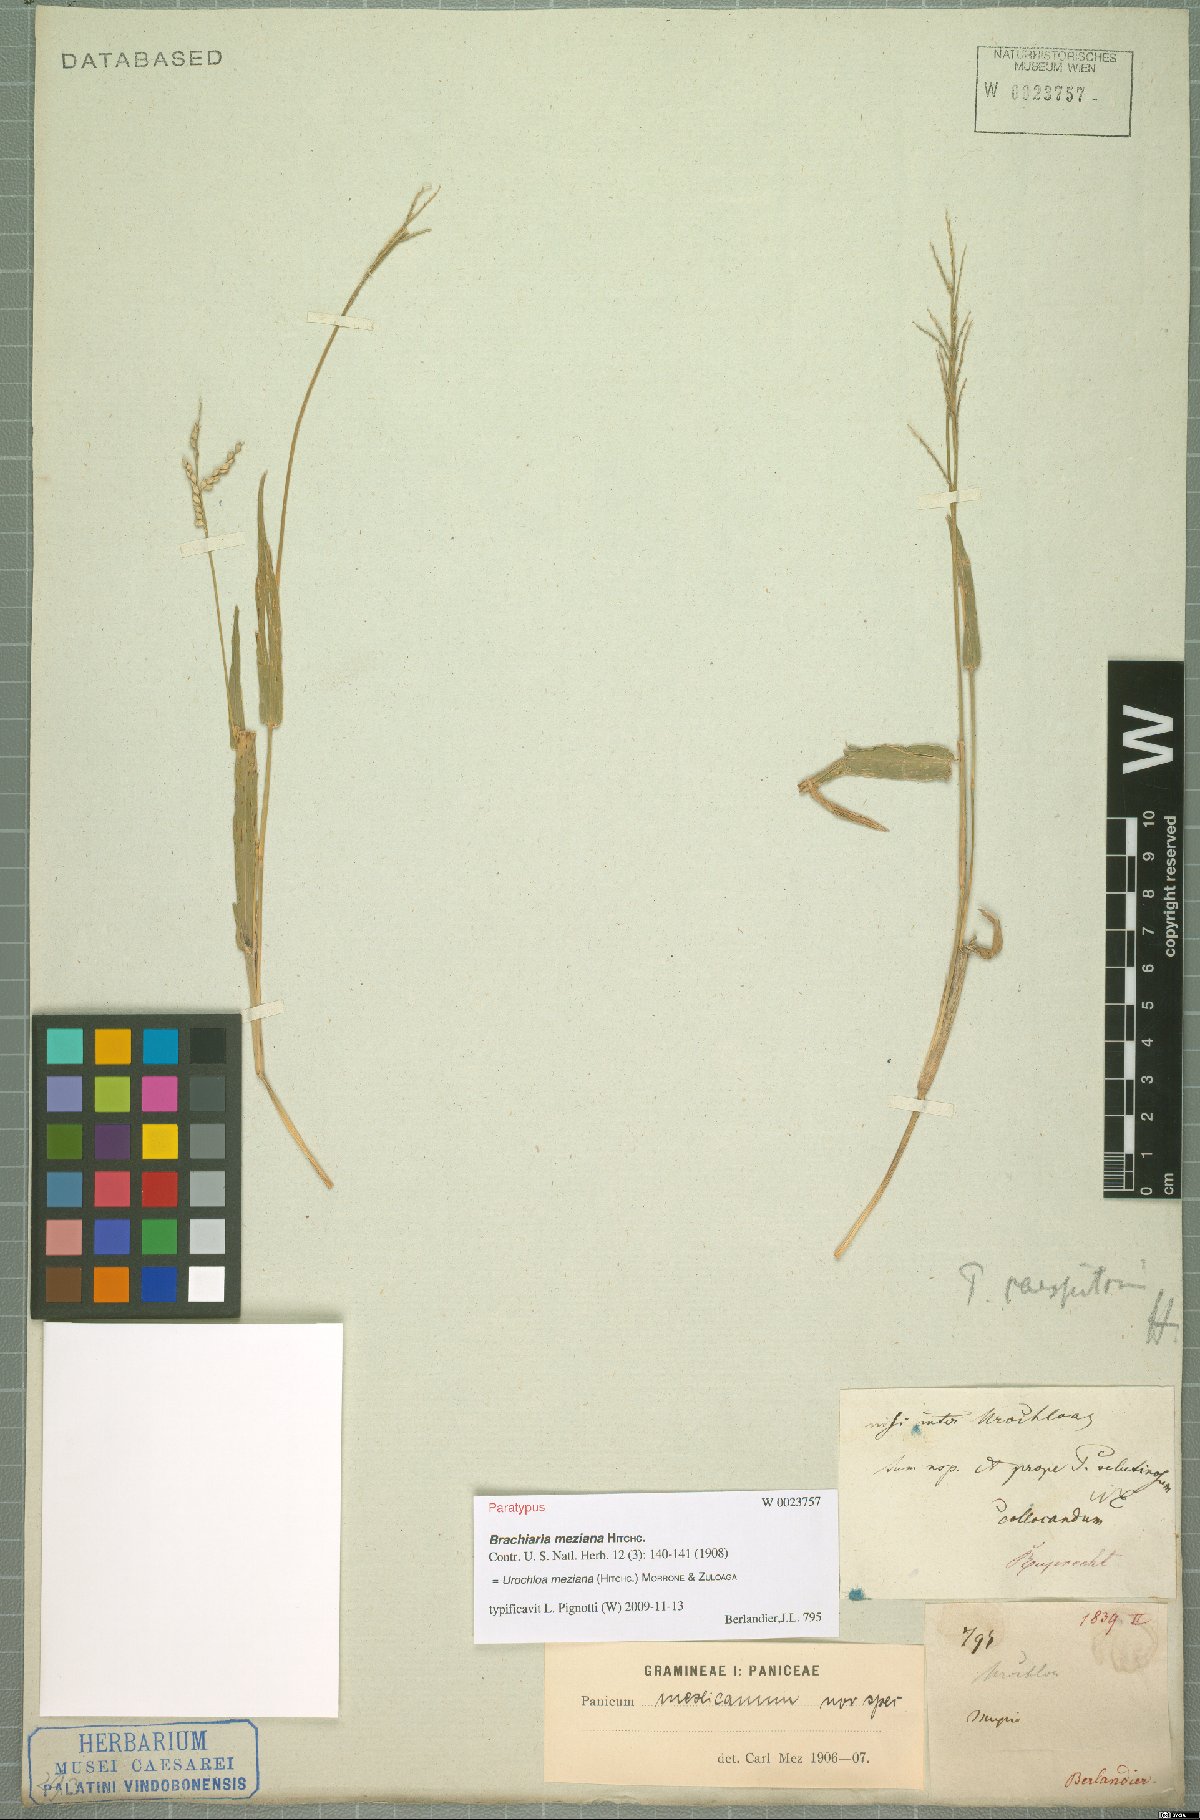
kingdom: Plantae
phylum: Tracheophyta
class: Liliopsida
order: Poales
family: Poaceae
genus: Urochloa
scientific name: Urochloa meziana
